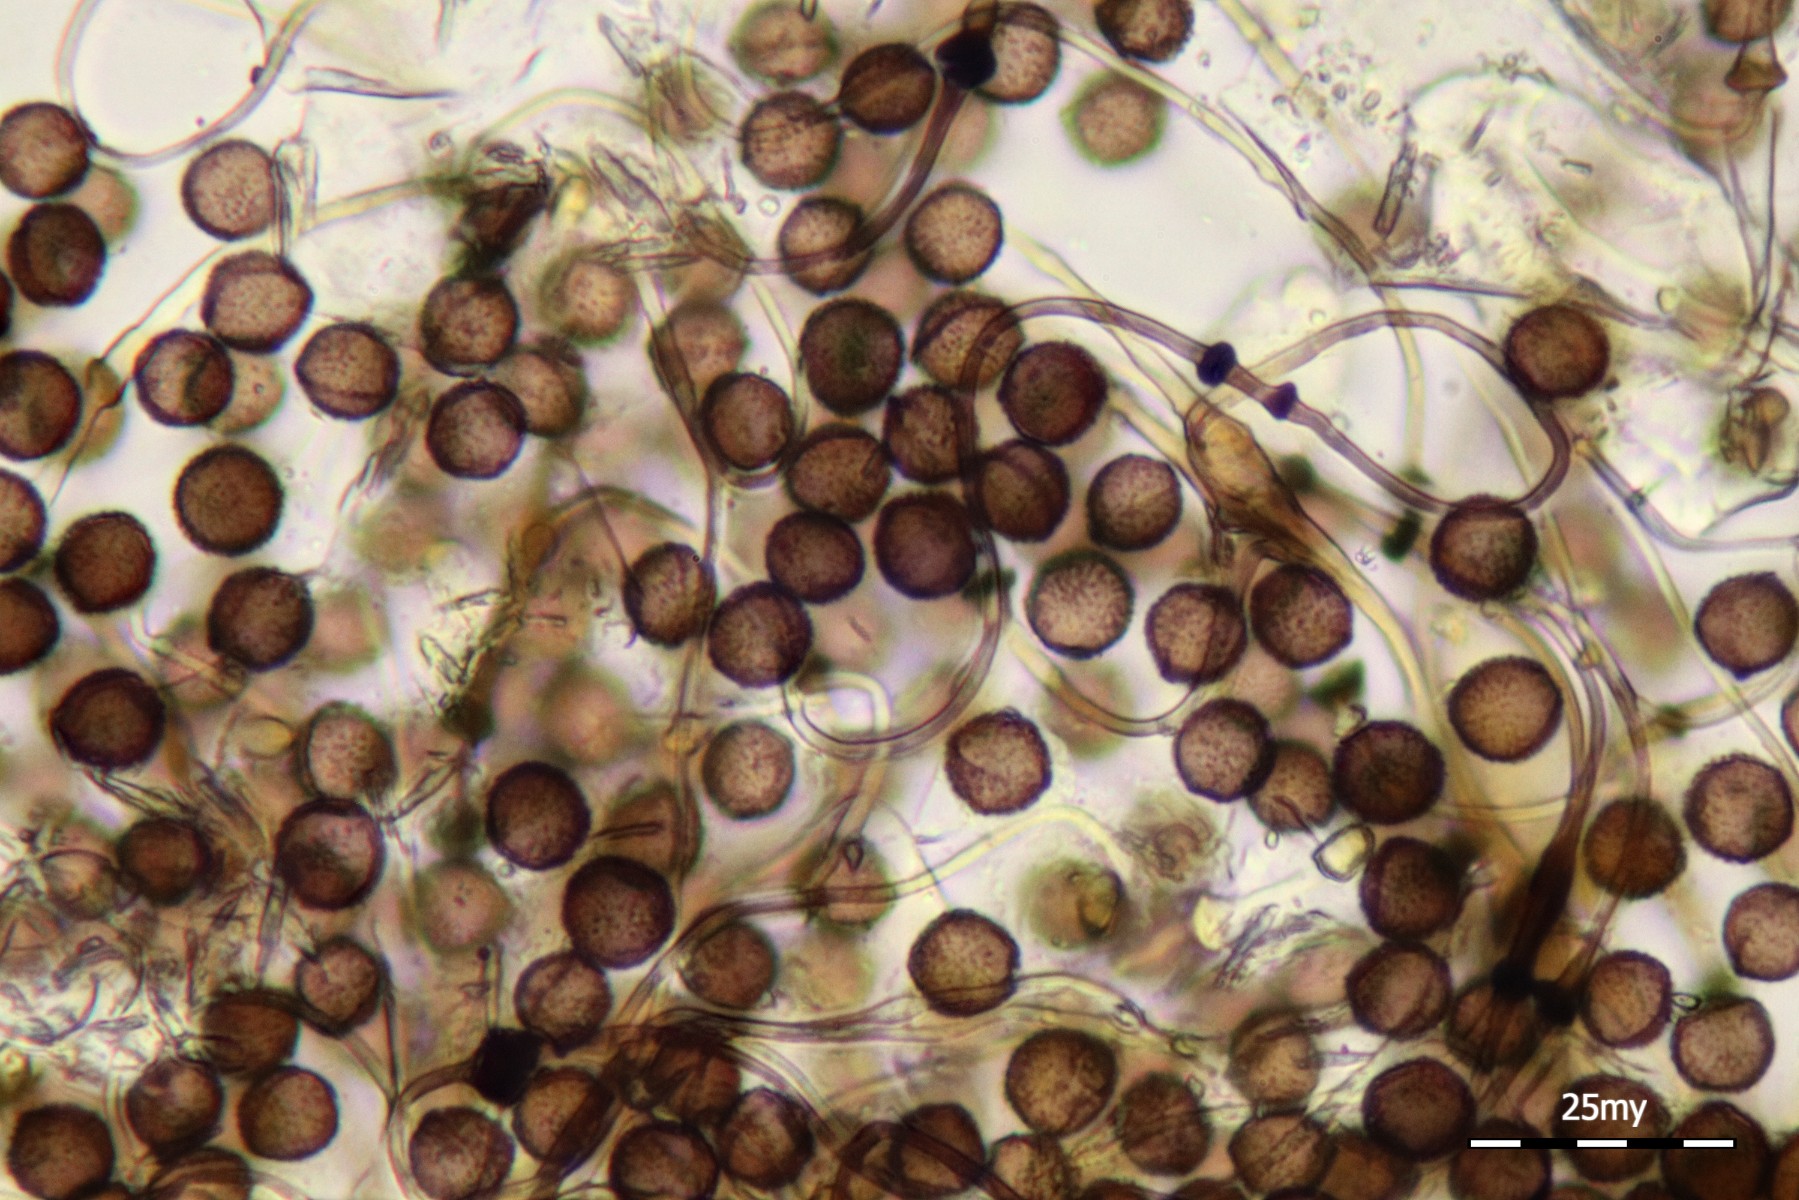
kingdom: Protozoa
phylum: Mycetozoa
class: Myxomycetes
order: Physarales
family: Didymiaceae
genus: Didymium
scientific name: Didymium squamulosum
